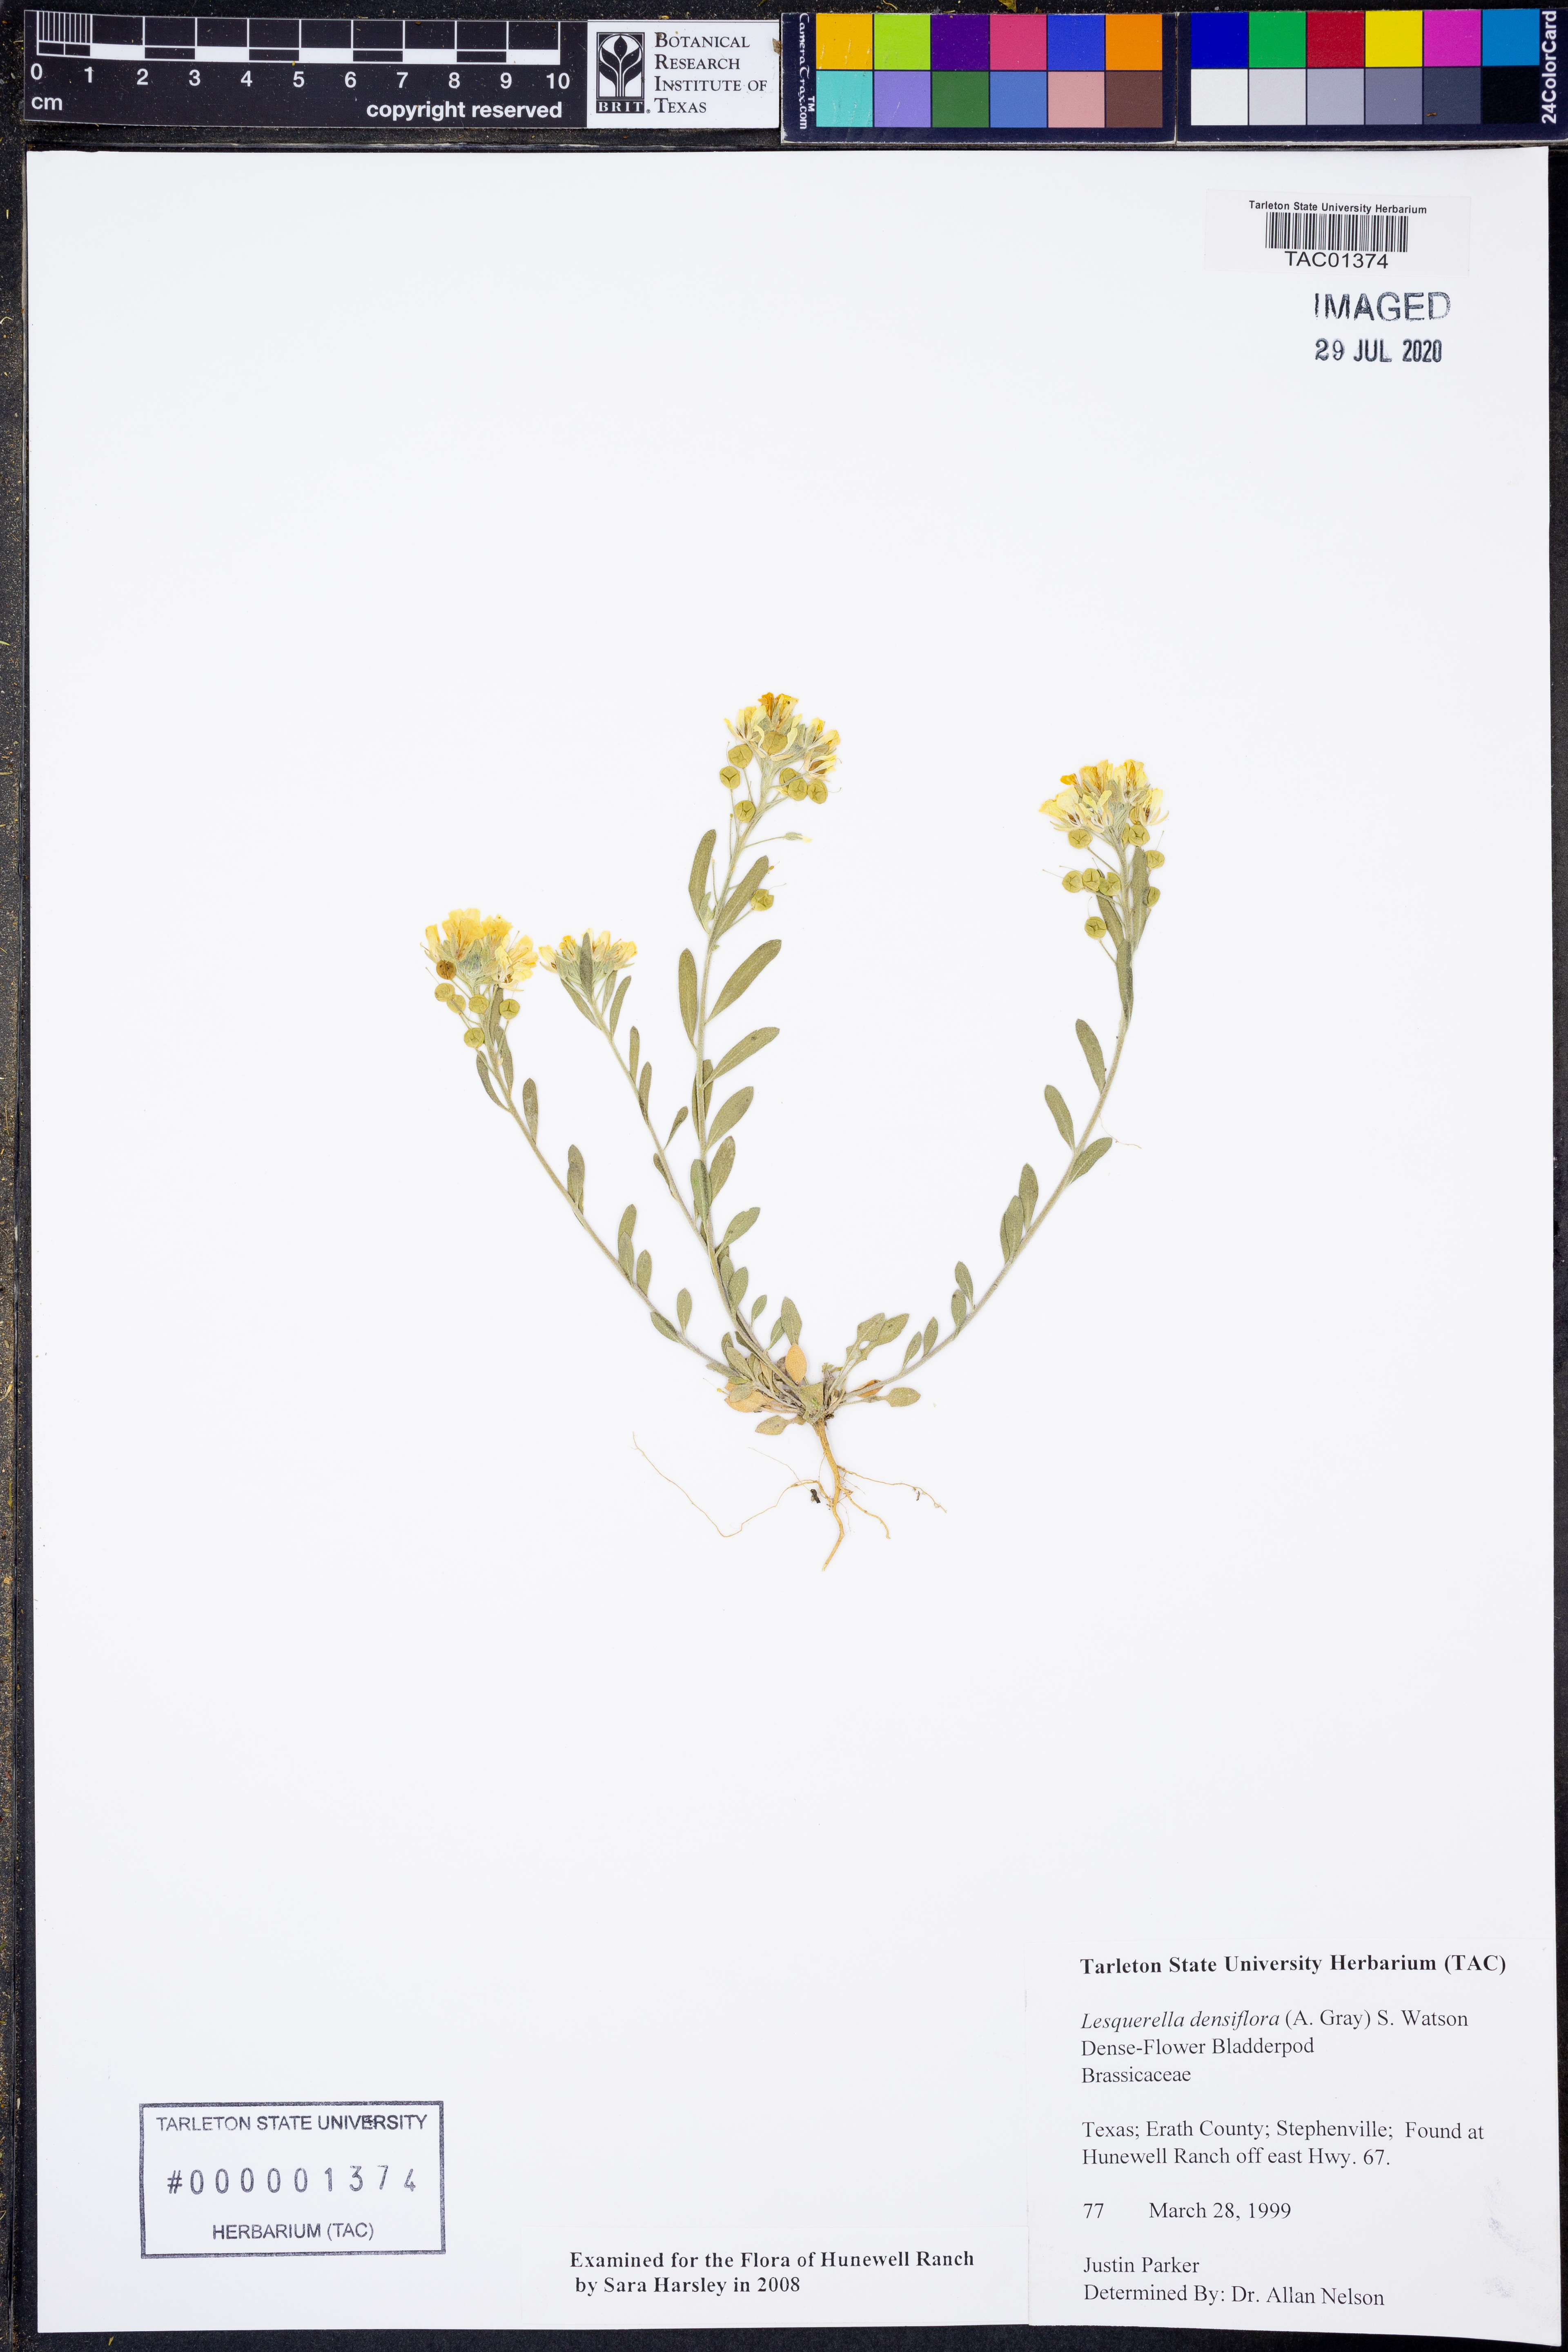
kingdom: Plantae
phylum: Tracheophyta
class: Magnoliopsida
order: Brassicales
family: Brassicaceae
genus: Physaria
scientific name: Physaria densiflora
